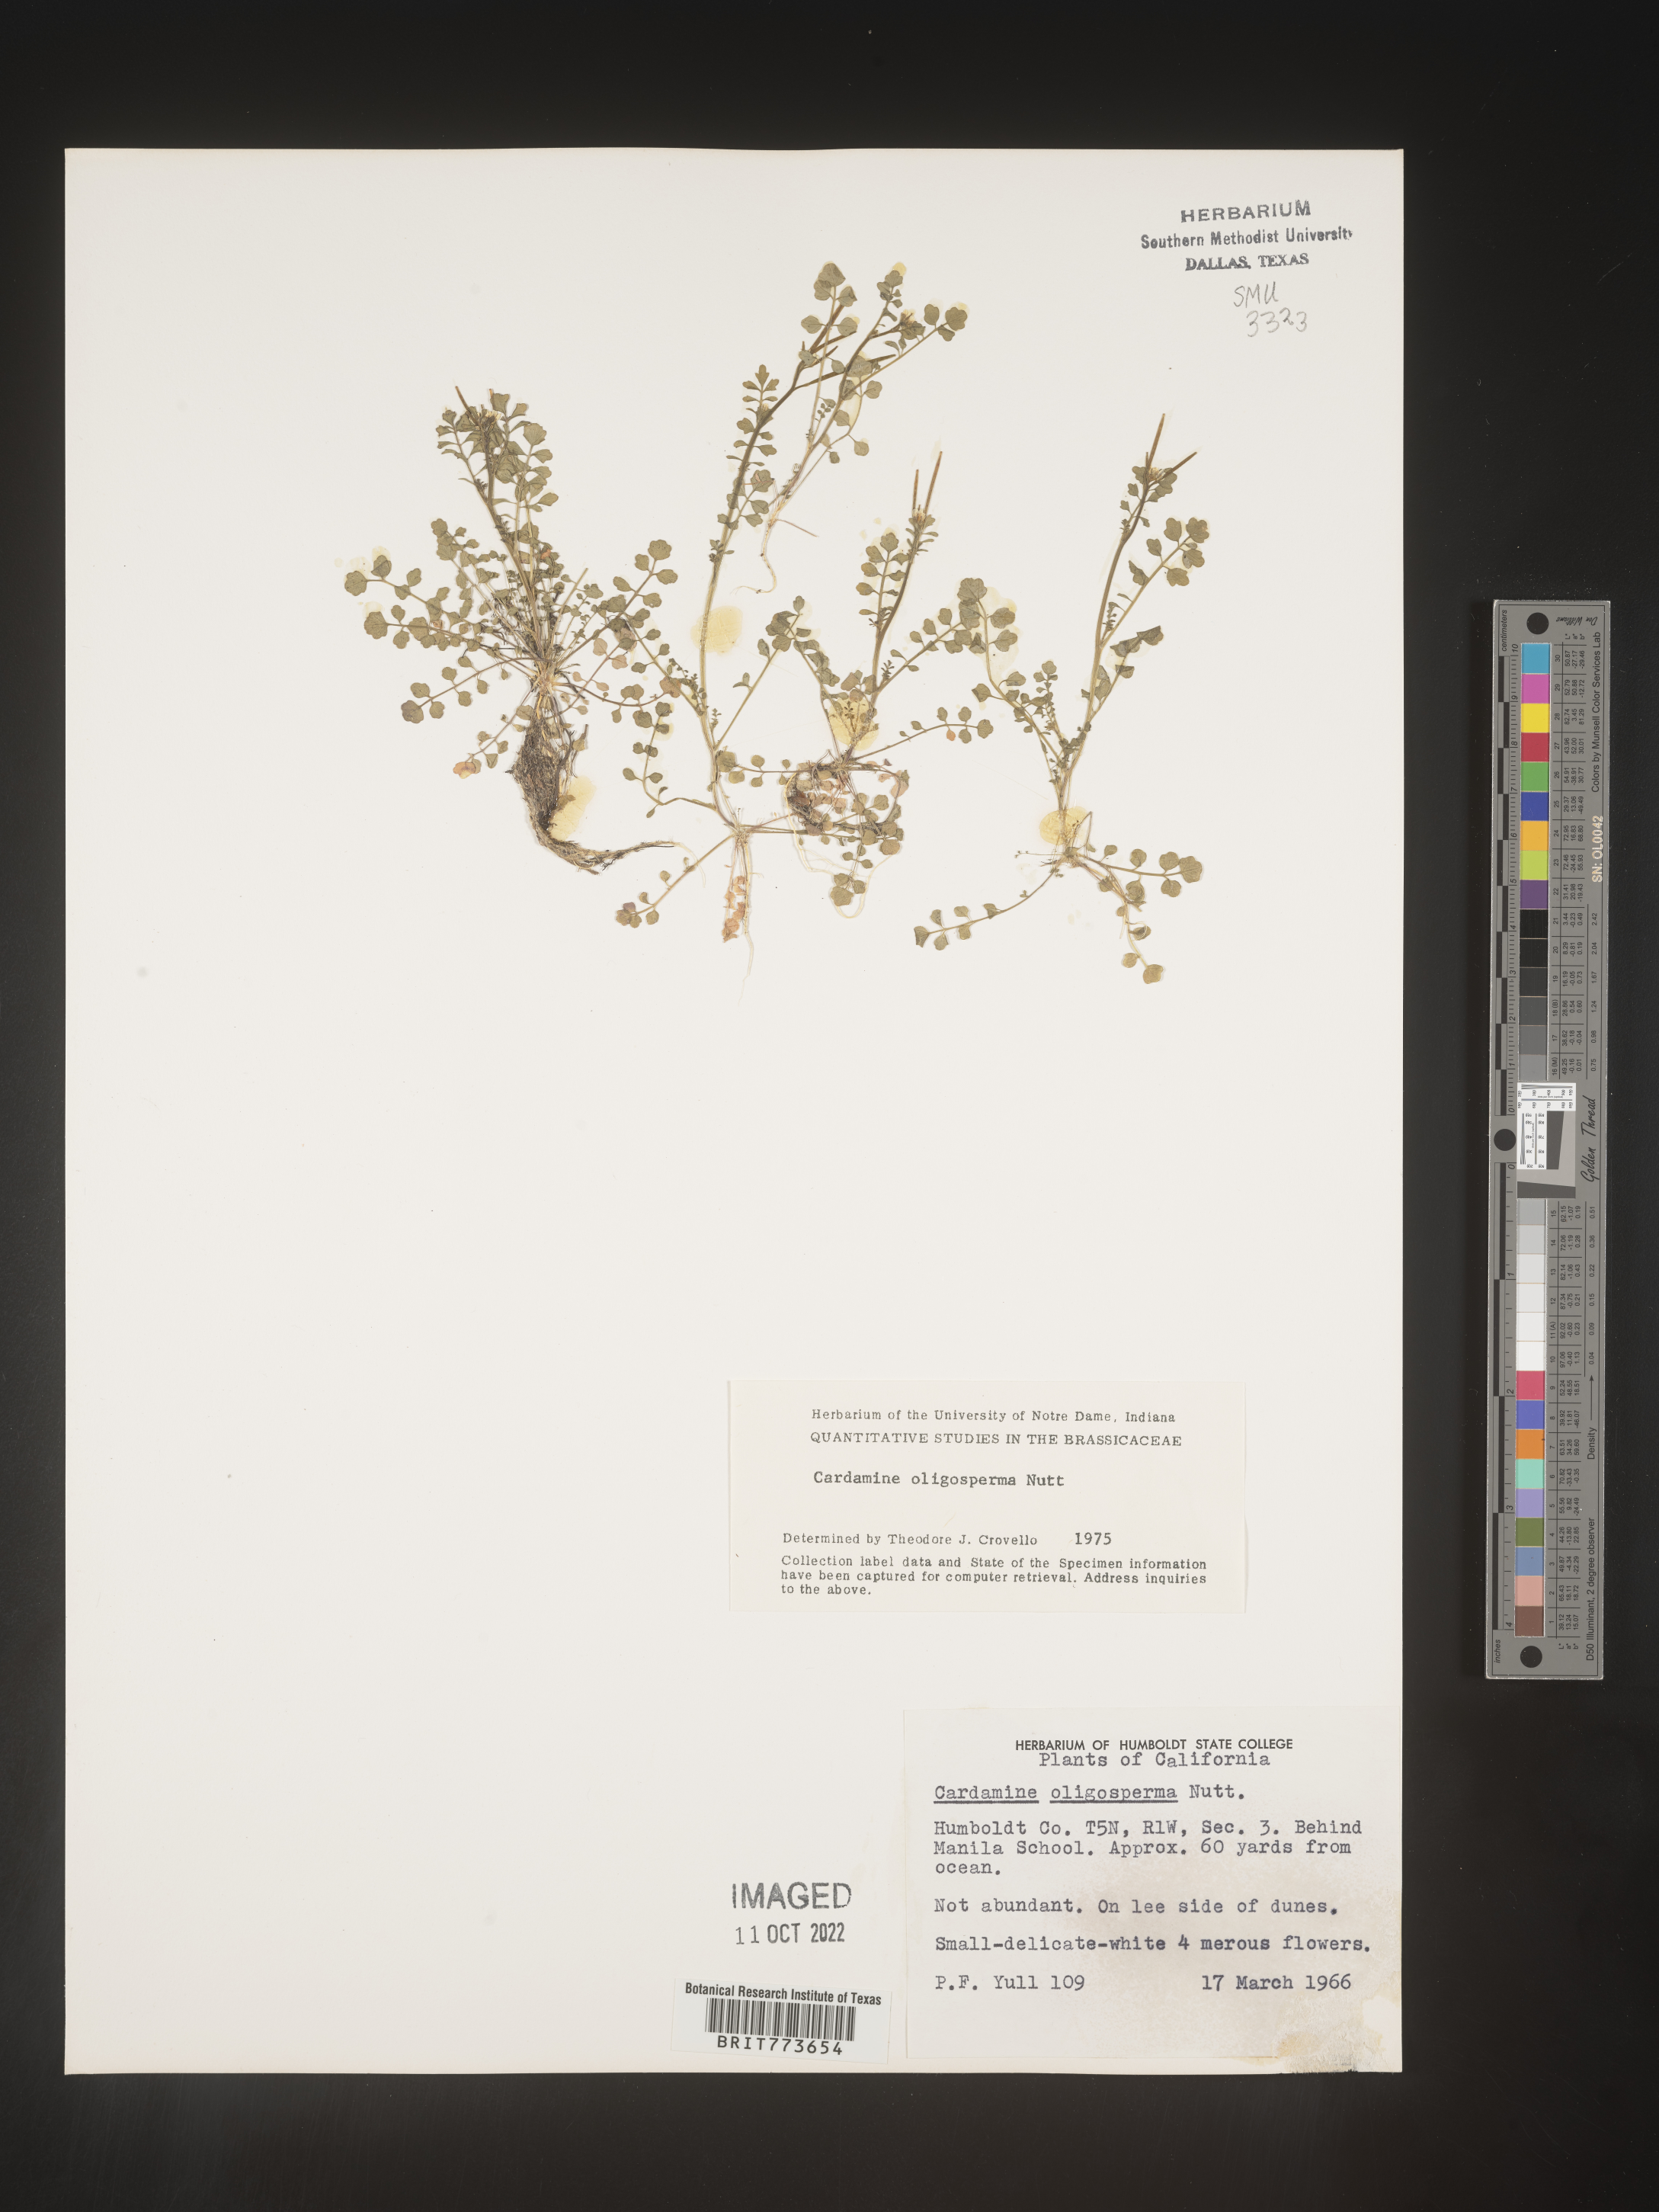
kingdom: Plantae
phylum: Tracheophyta
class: Magnoliopsida
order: Brassicales
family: Brassicaceae
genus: Cardamine
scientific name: Cardamine
